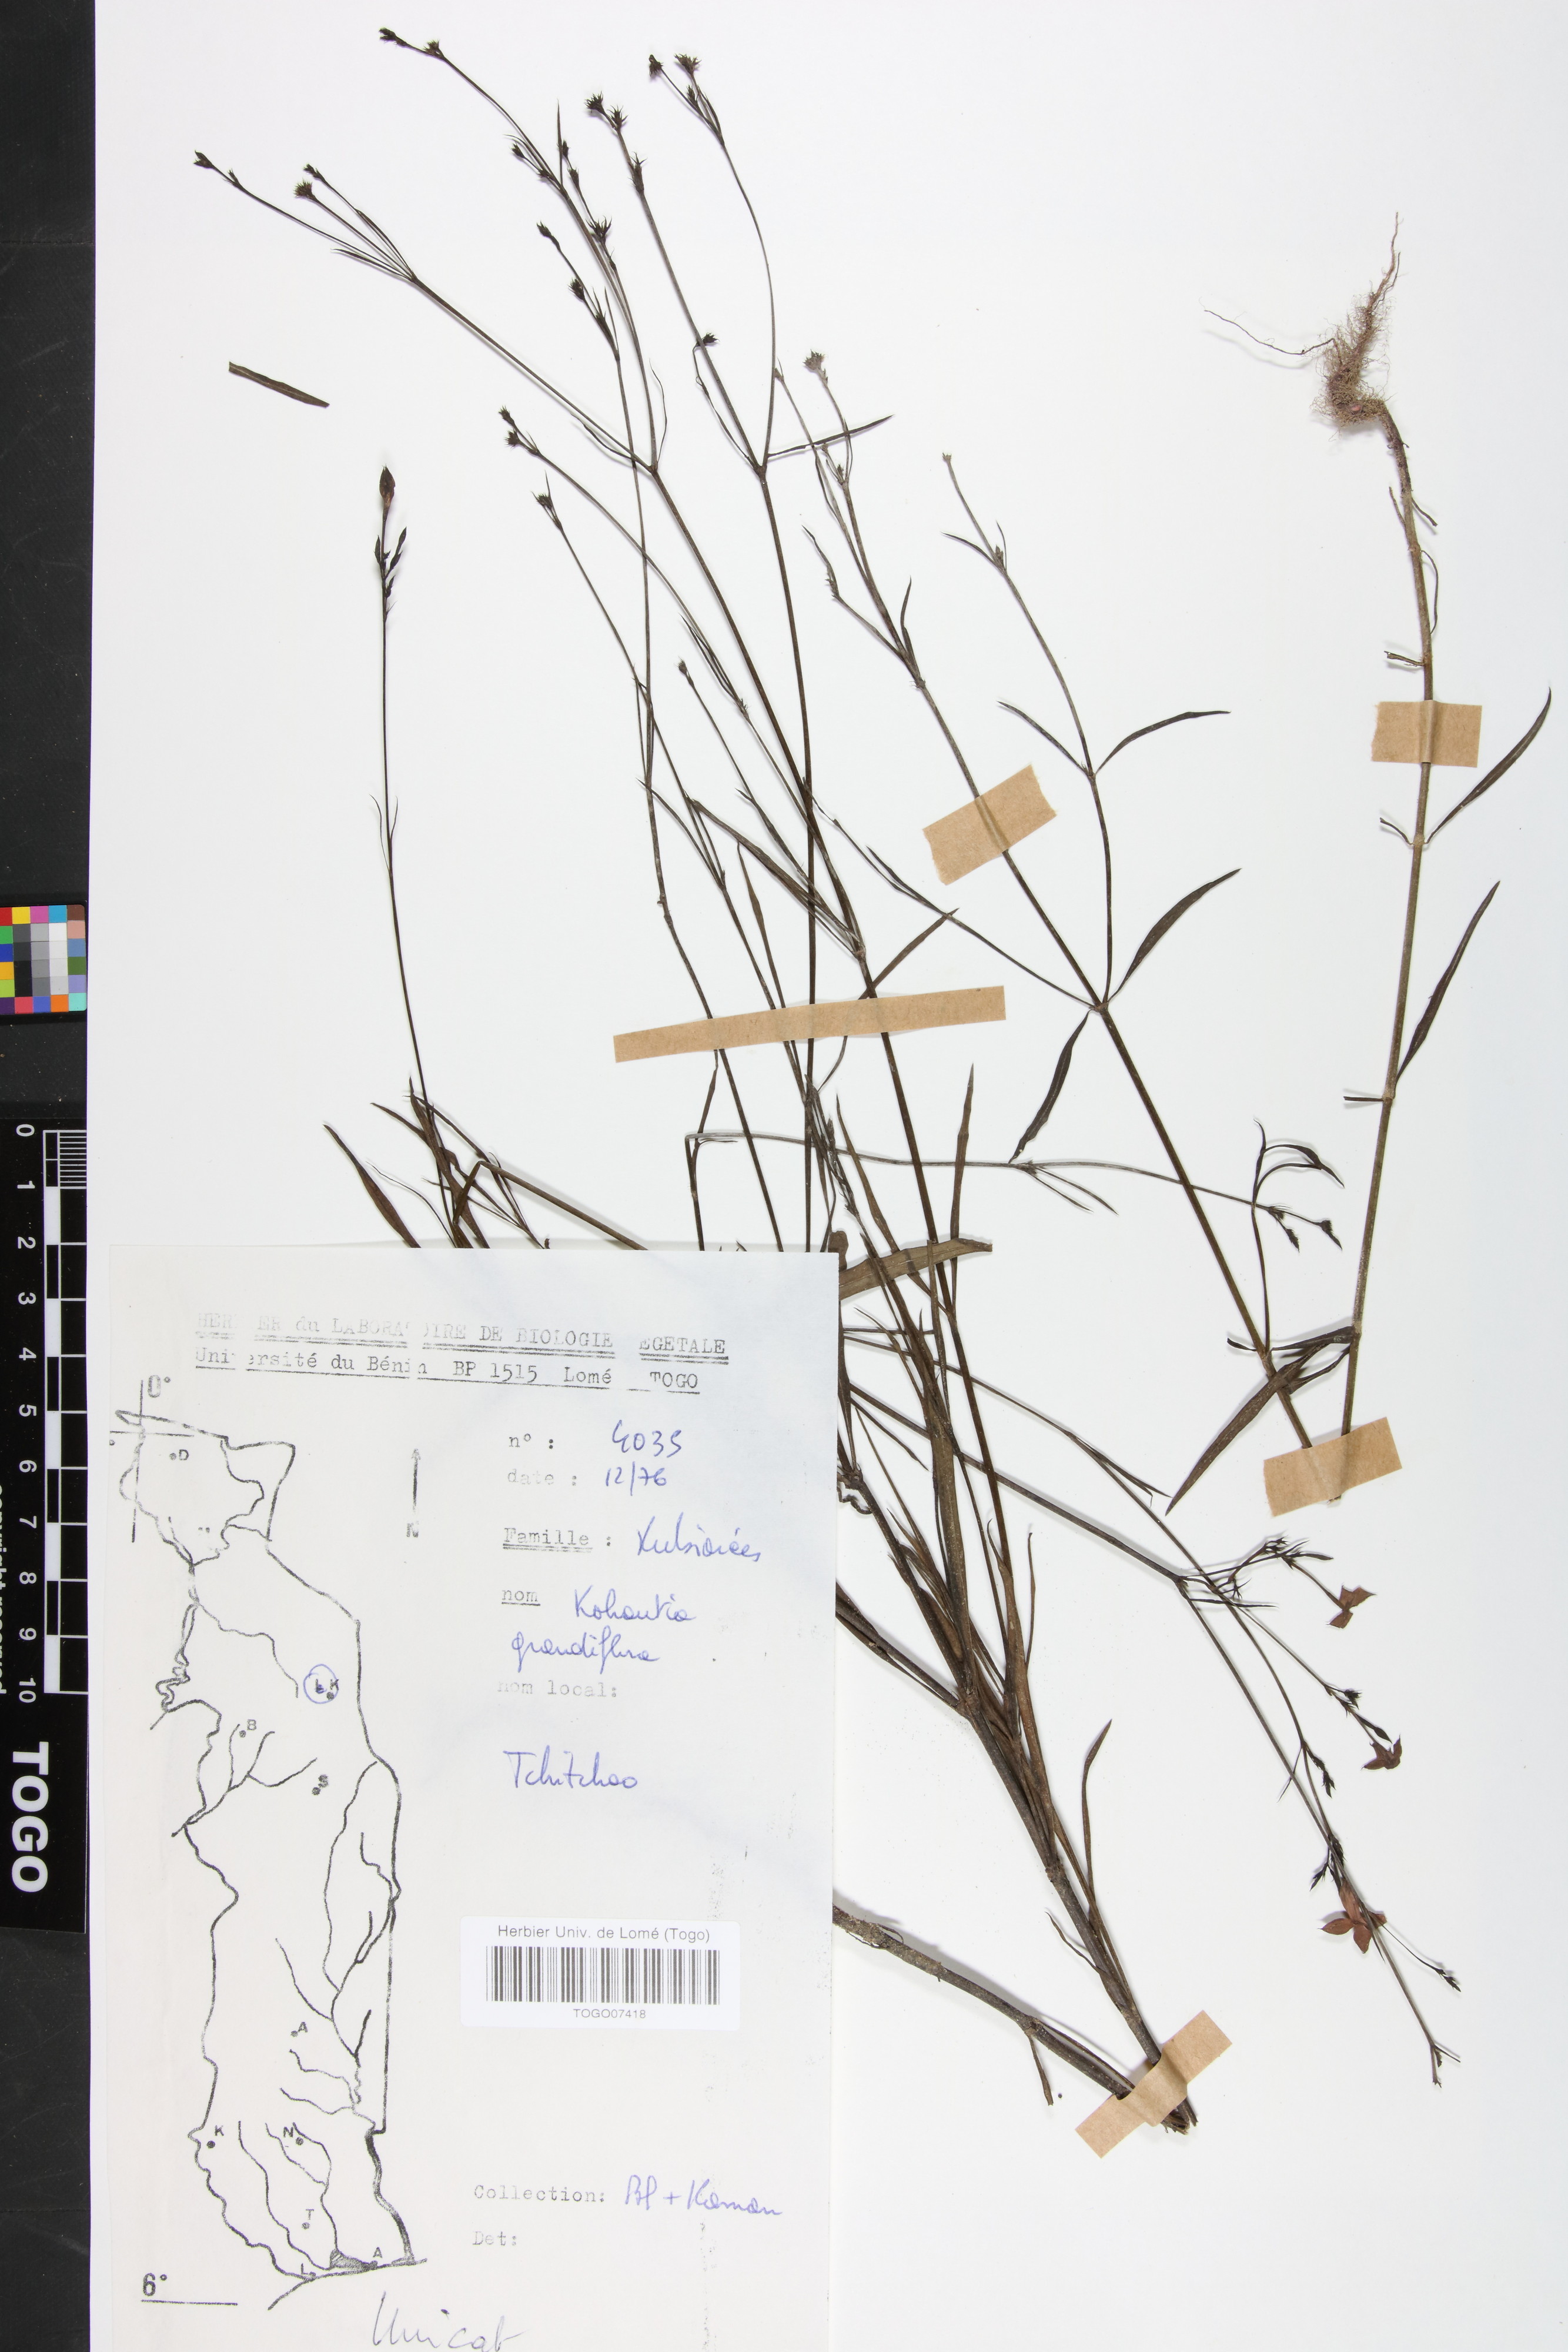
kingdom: Plantae
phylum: Tracheophyta
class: Magnoliopsida
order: Gentianales
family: Rubiaceae
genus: Kohautia
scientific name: Kohautia grandiflora
